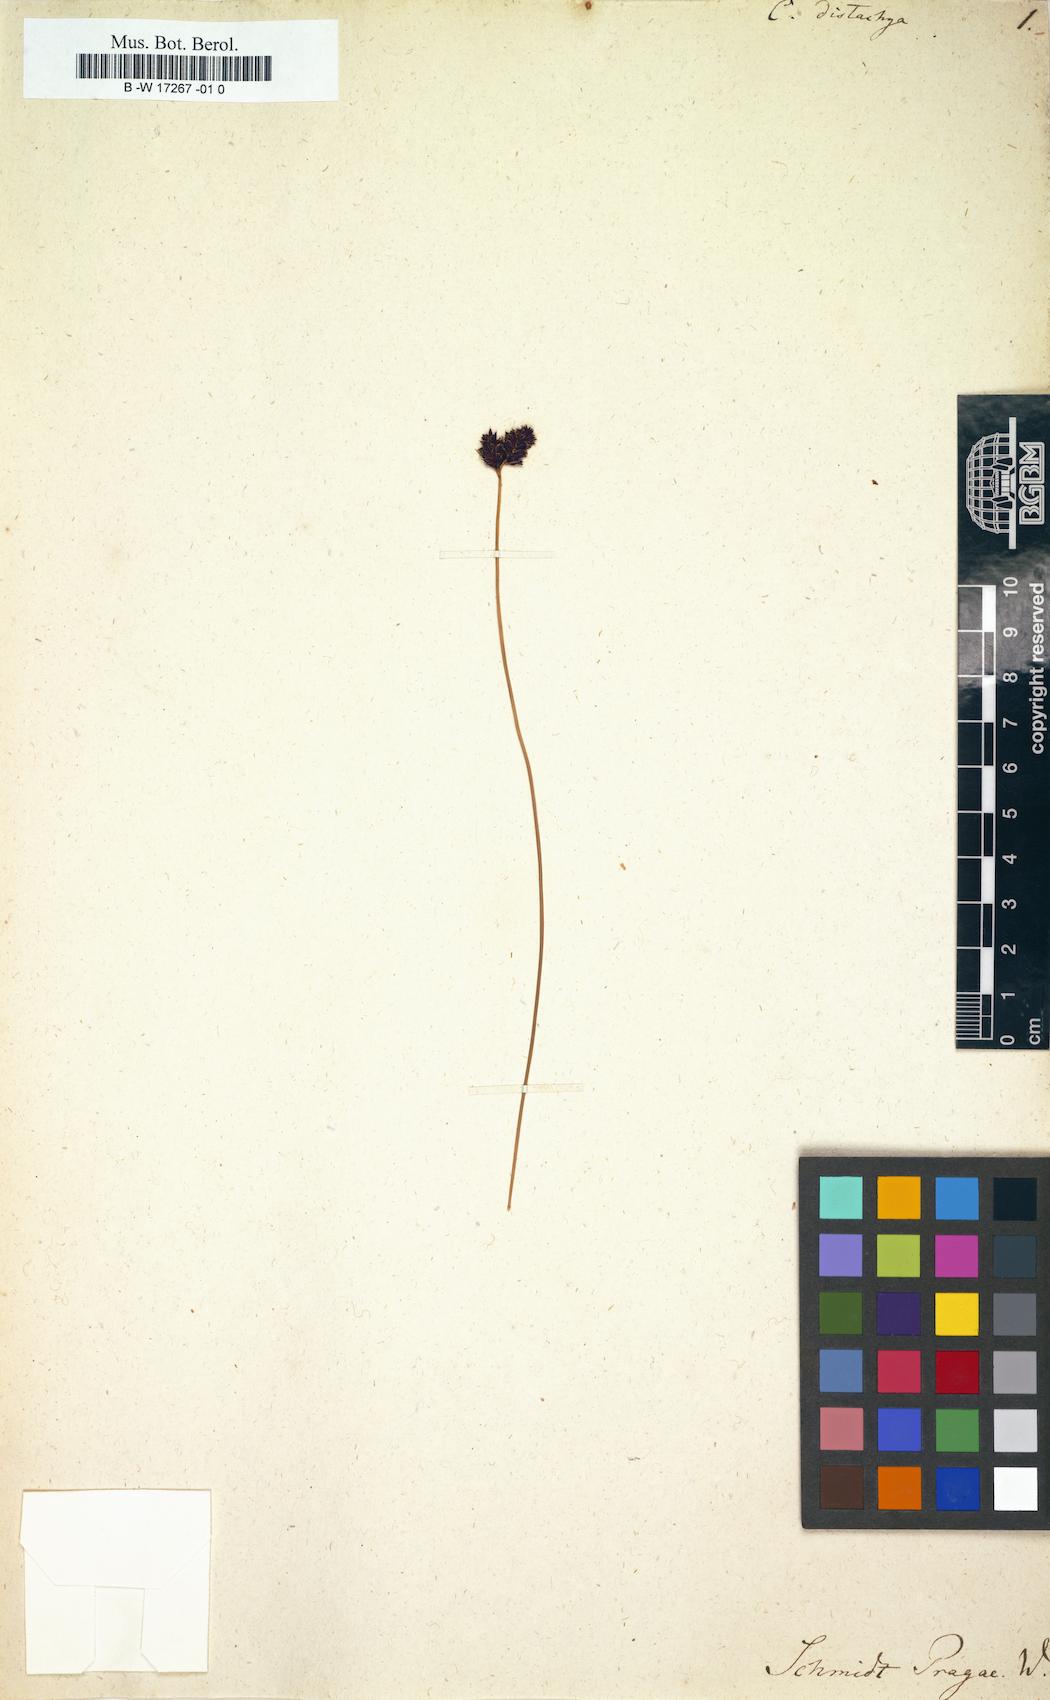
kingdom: Plantae
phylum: Tracheophyta
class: Liliopsida
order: Poales
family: Cyperaceae
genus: Carex
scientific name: Carex distachya
